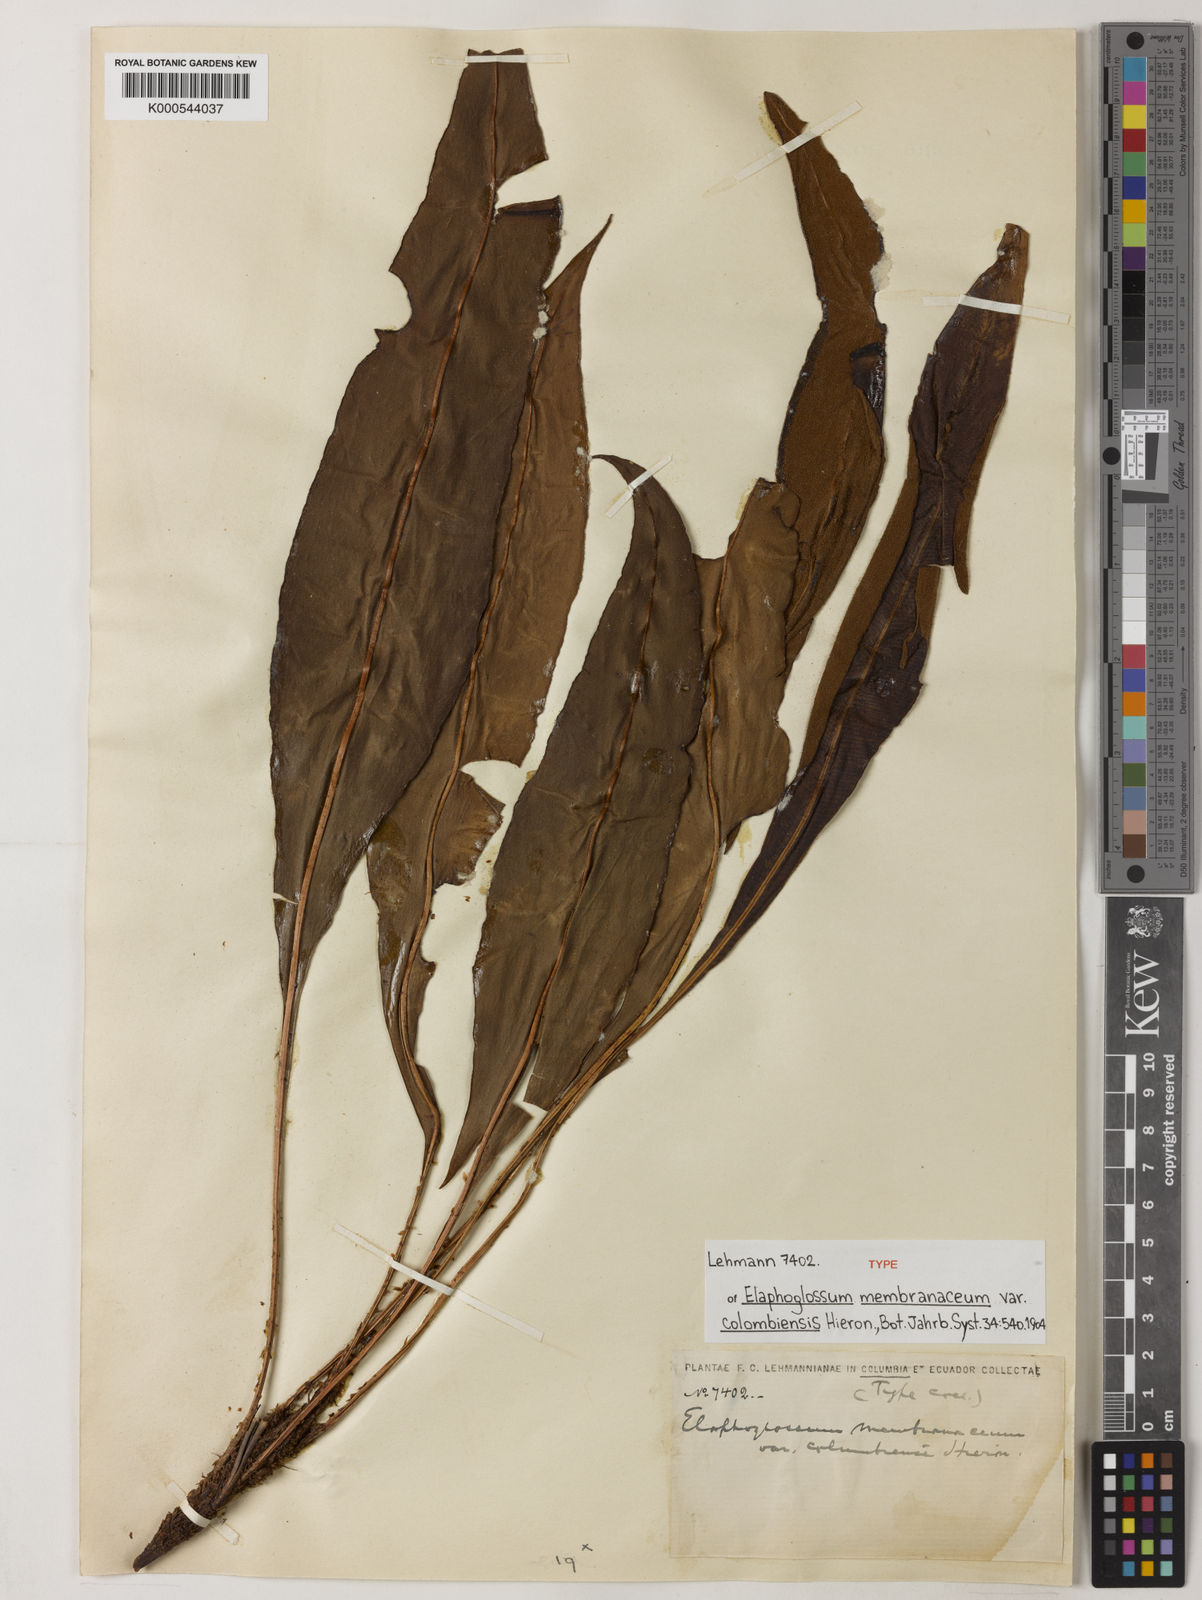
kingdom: Plantae
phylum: Tracheophyta
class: Polypodiopsida
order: Polypodiales
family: Dryopteridaceae
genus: Elaphoglossum
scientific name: Elaphoglossum latifolium
